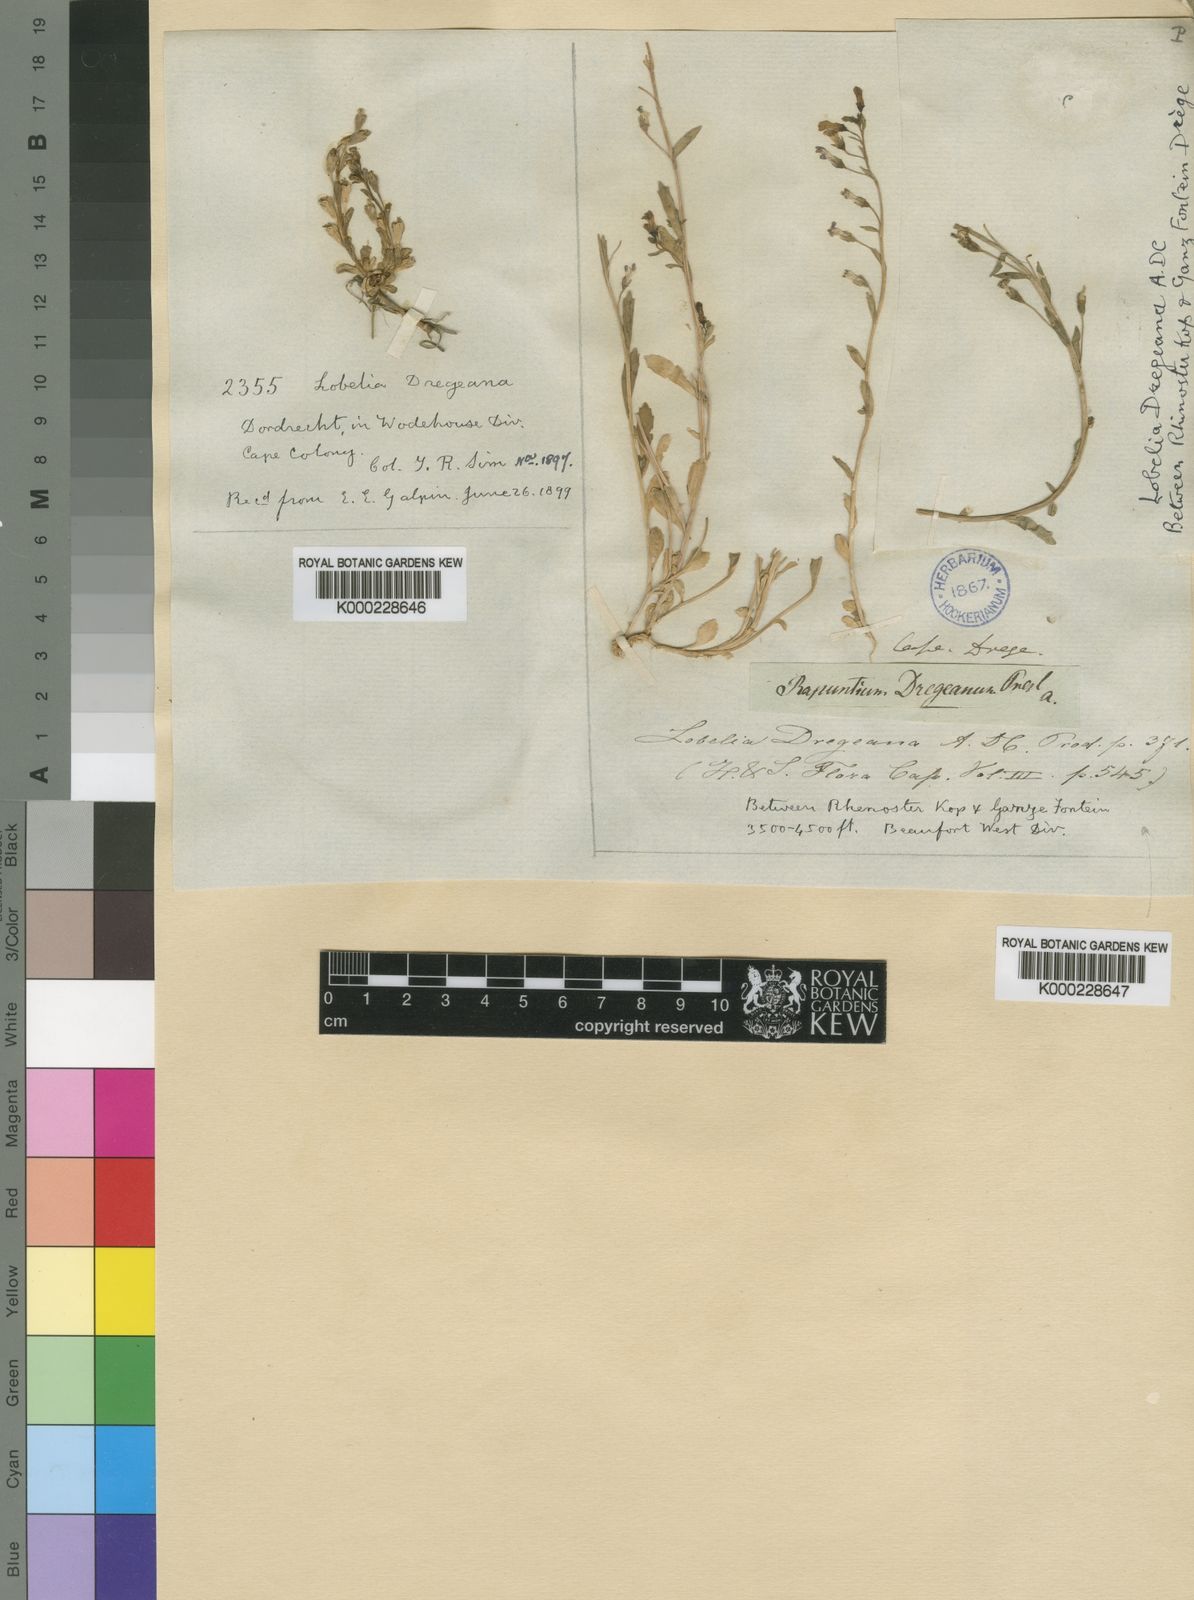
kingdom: Plantae
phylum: Tracheophyta
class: Magnoliopsida
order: Asterales
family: Campanulaceae
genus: Lobelia
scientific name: Lobelia dregeana
